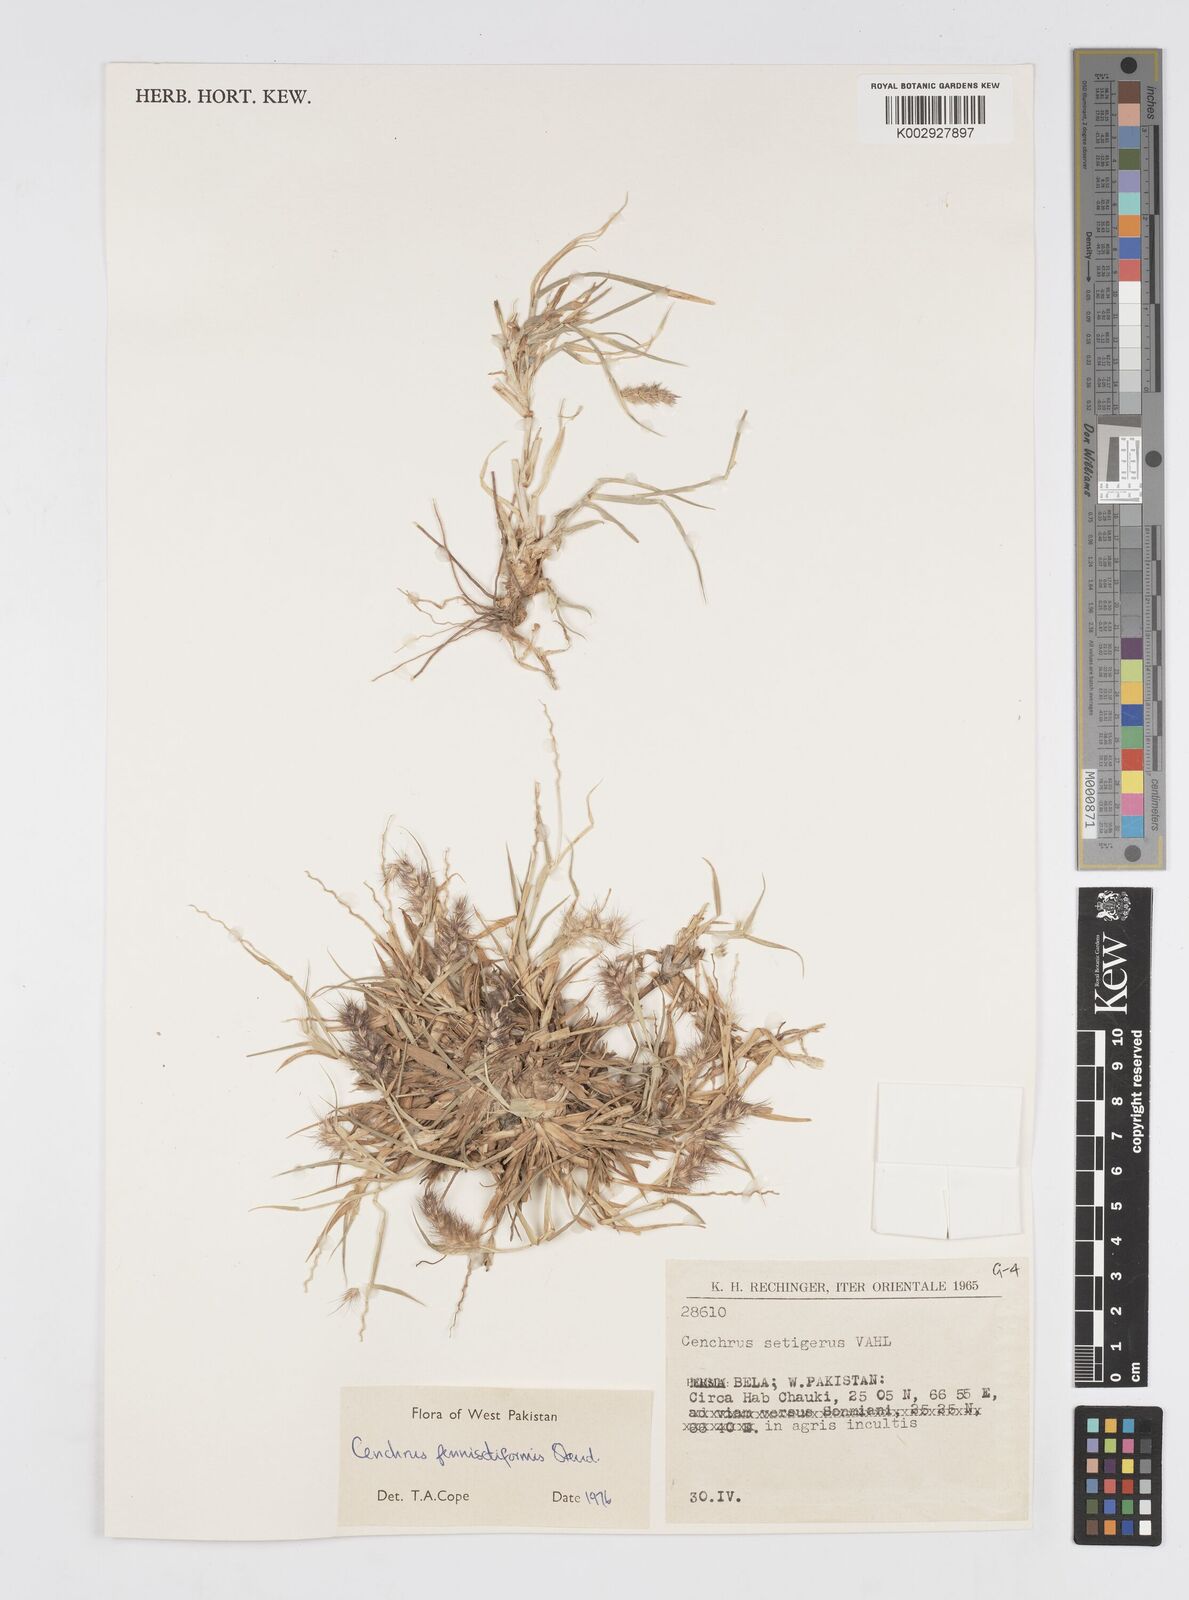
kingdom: Plantae
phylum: Tracheophyta
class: Liliopsida
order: Poales
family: Poaceae
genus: Cenchrus
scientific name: Cenchrus pennisetiformis
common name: Cloncurry
